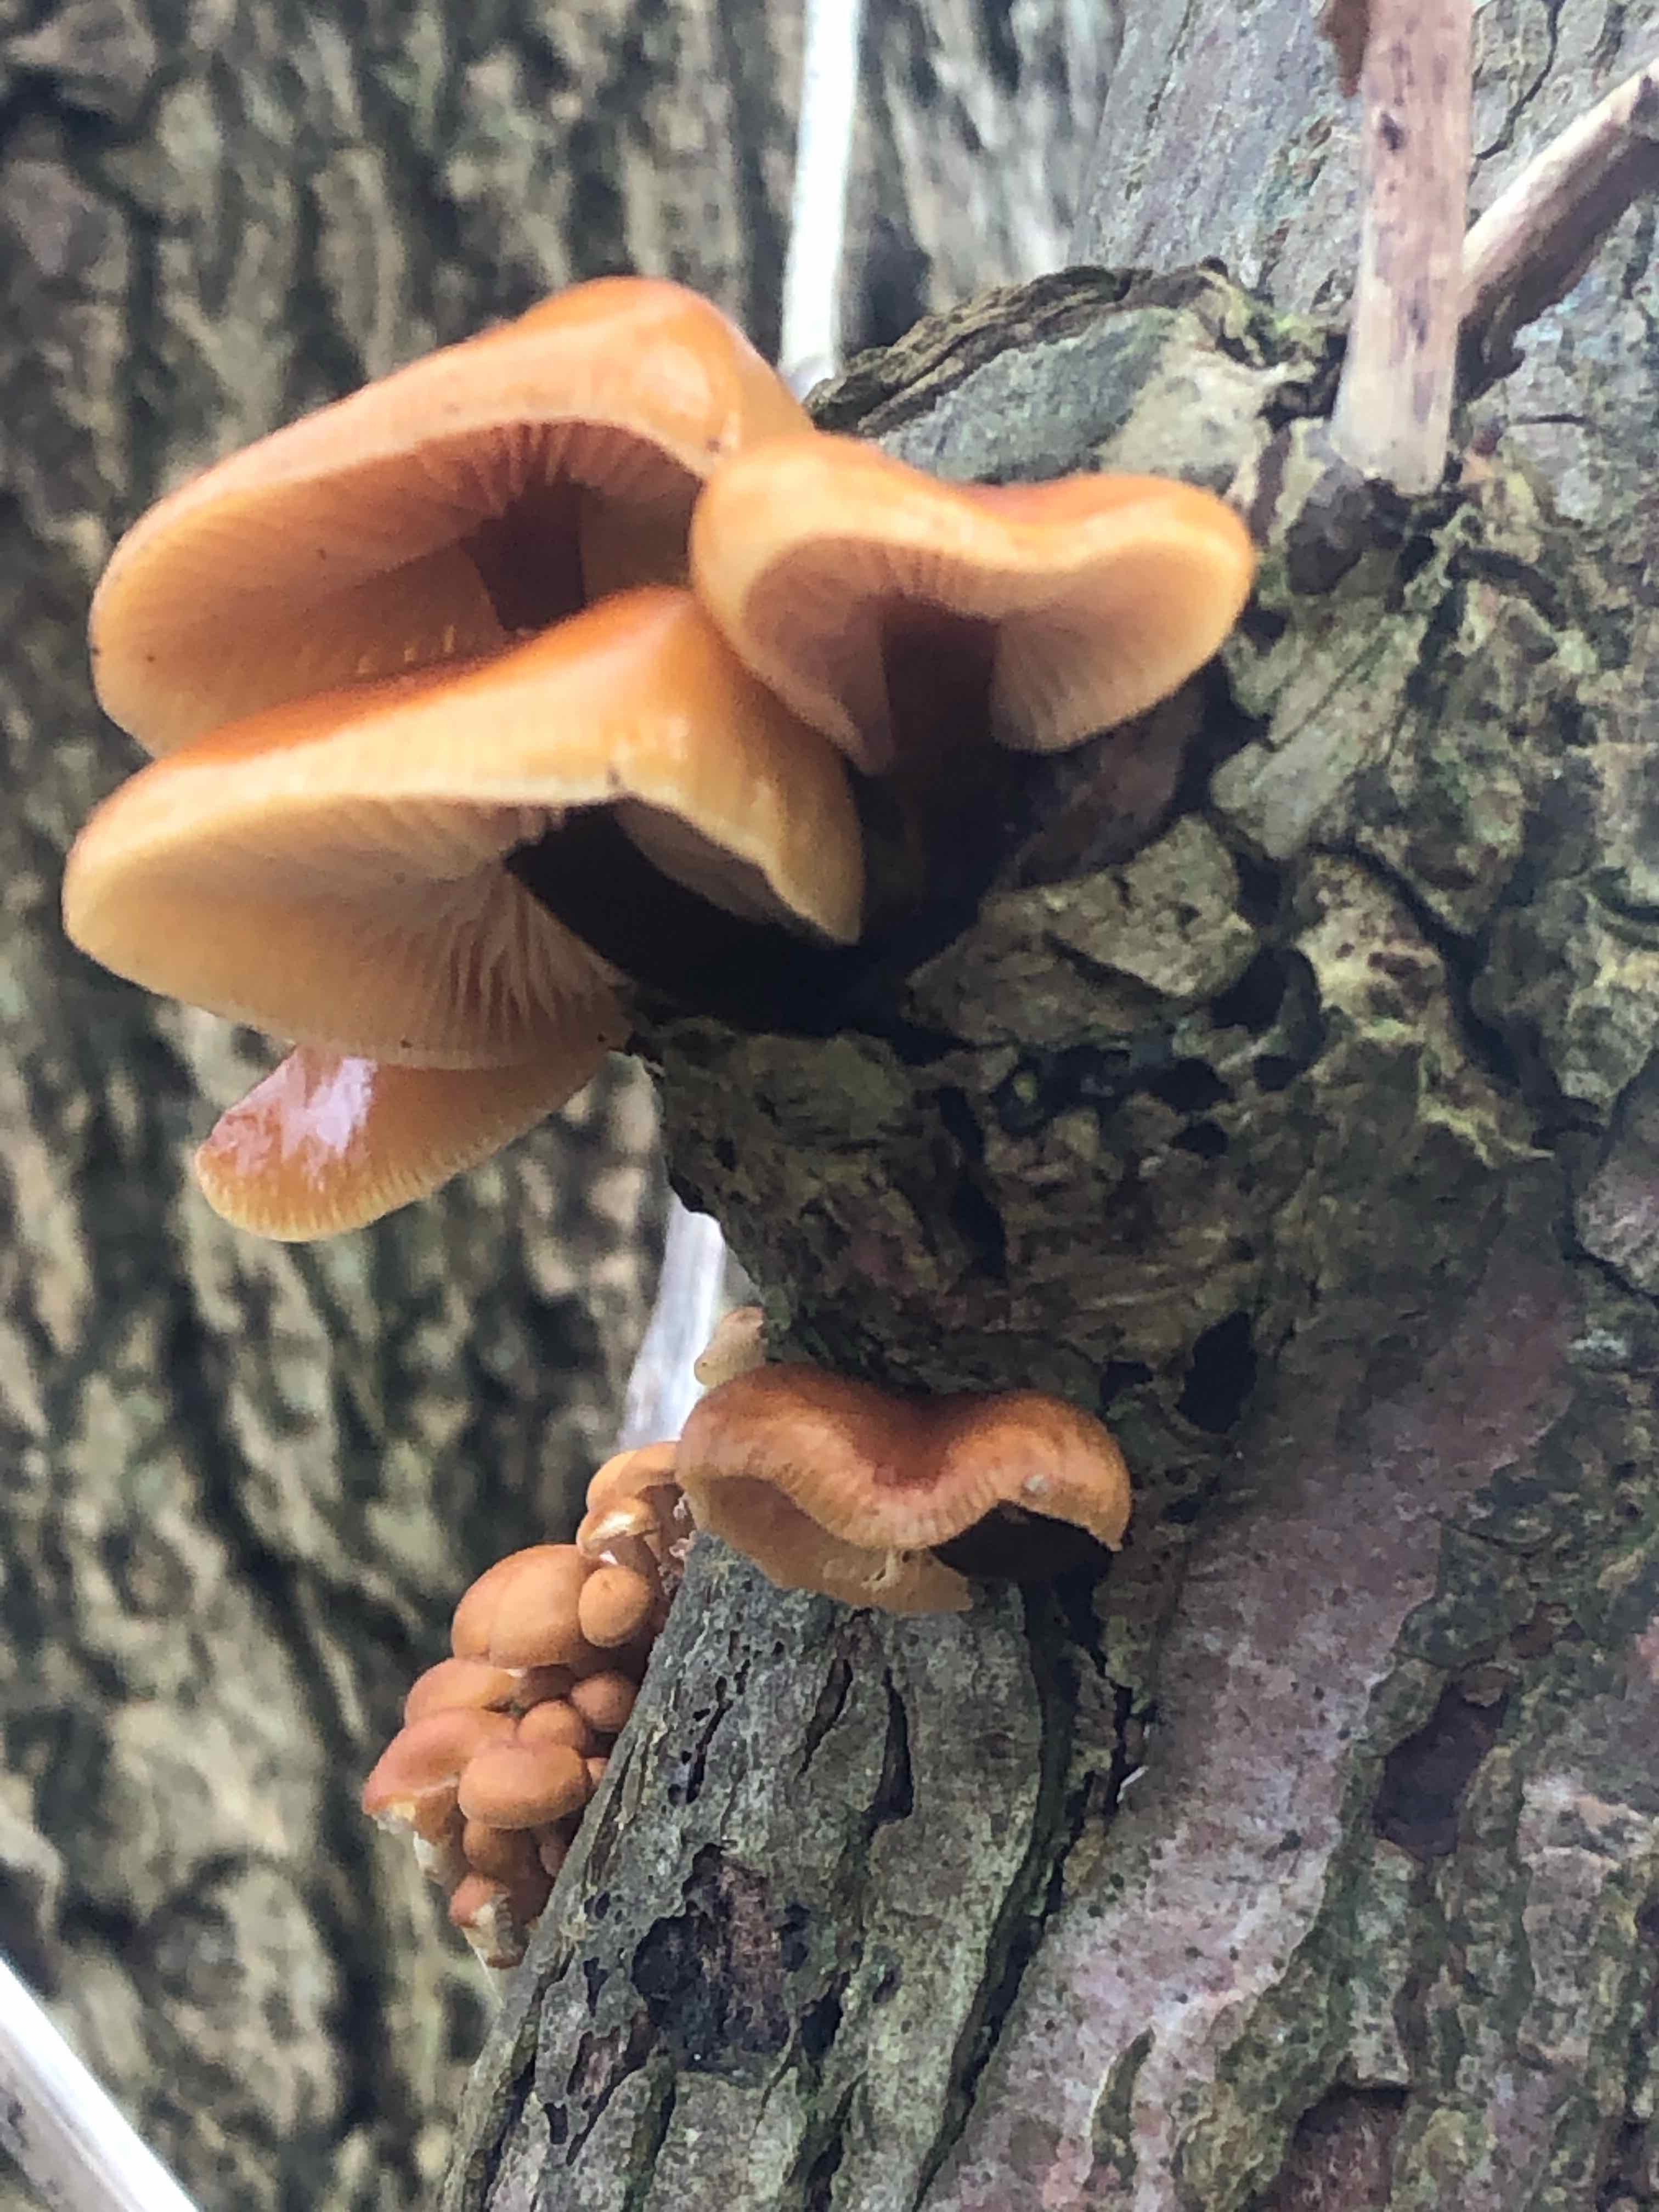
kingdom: Fungi
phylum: Basidiomycota
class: Agaricomycetes
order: Agaricales
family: Physalacriaceae
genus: Flammulina
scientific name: Flammulina
